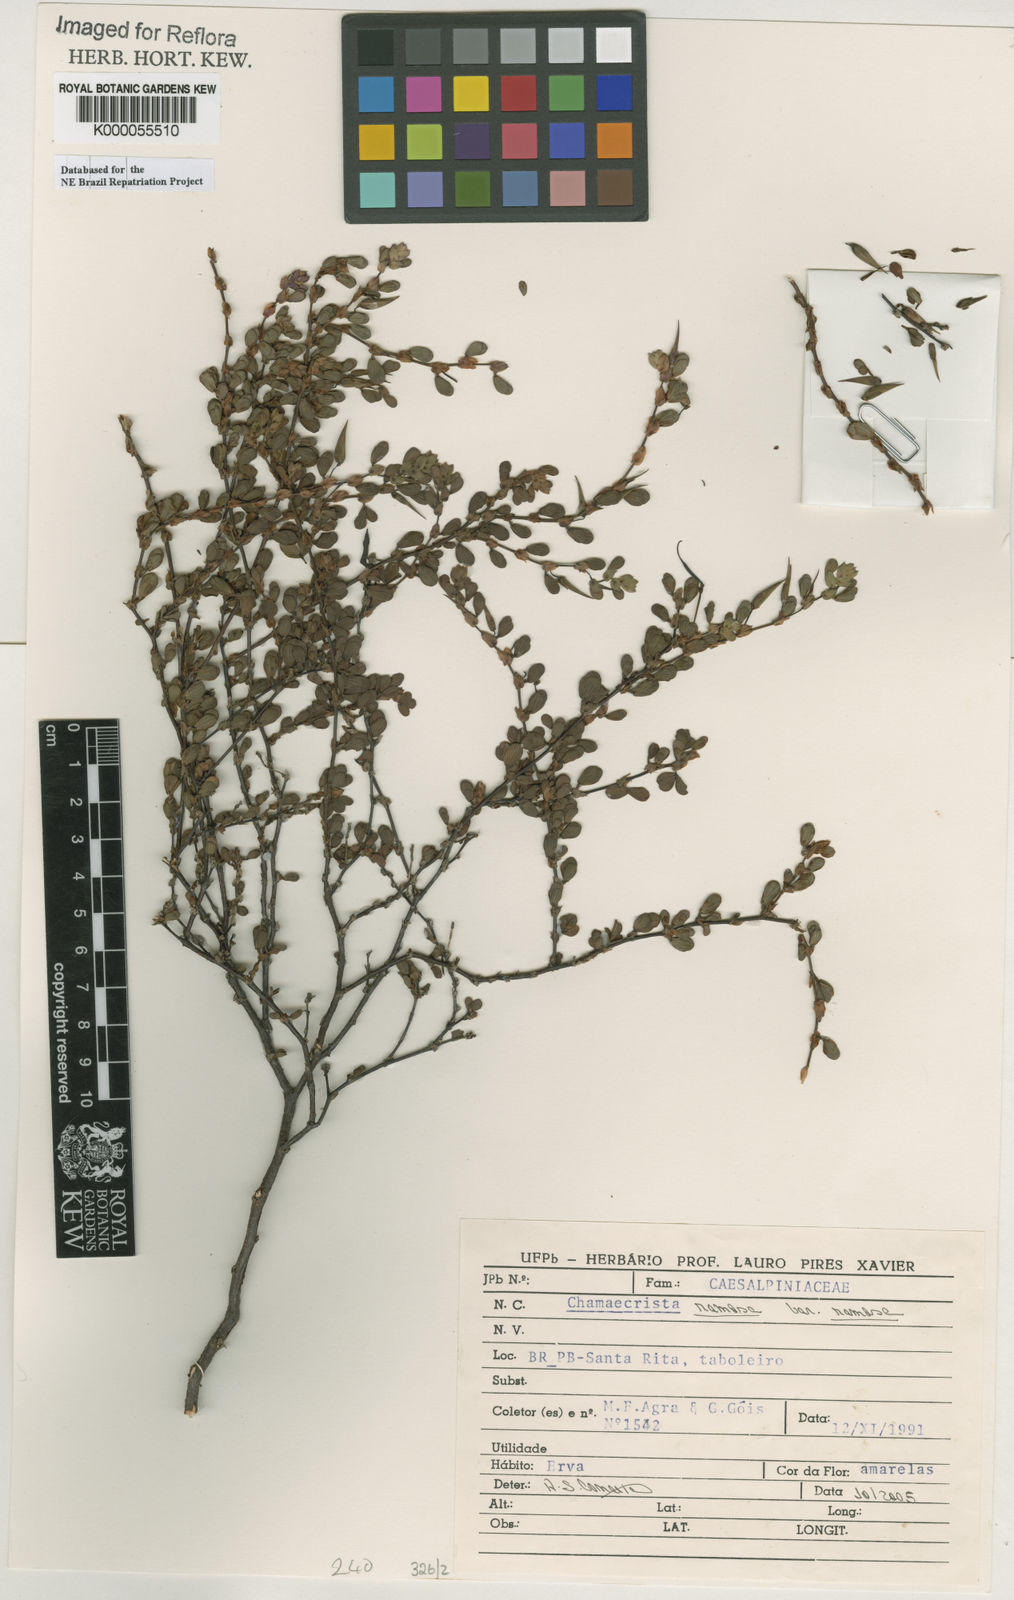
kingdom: Plantae
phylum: Tracheophyta
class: Magnoliopsida
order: Fabales
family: Fabaceae
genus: Chamaecrista
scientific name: Chamaecrista
